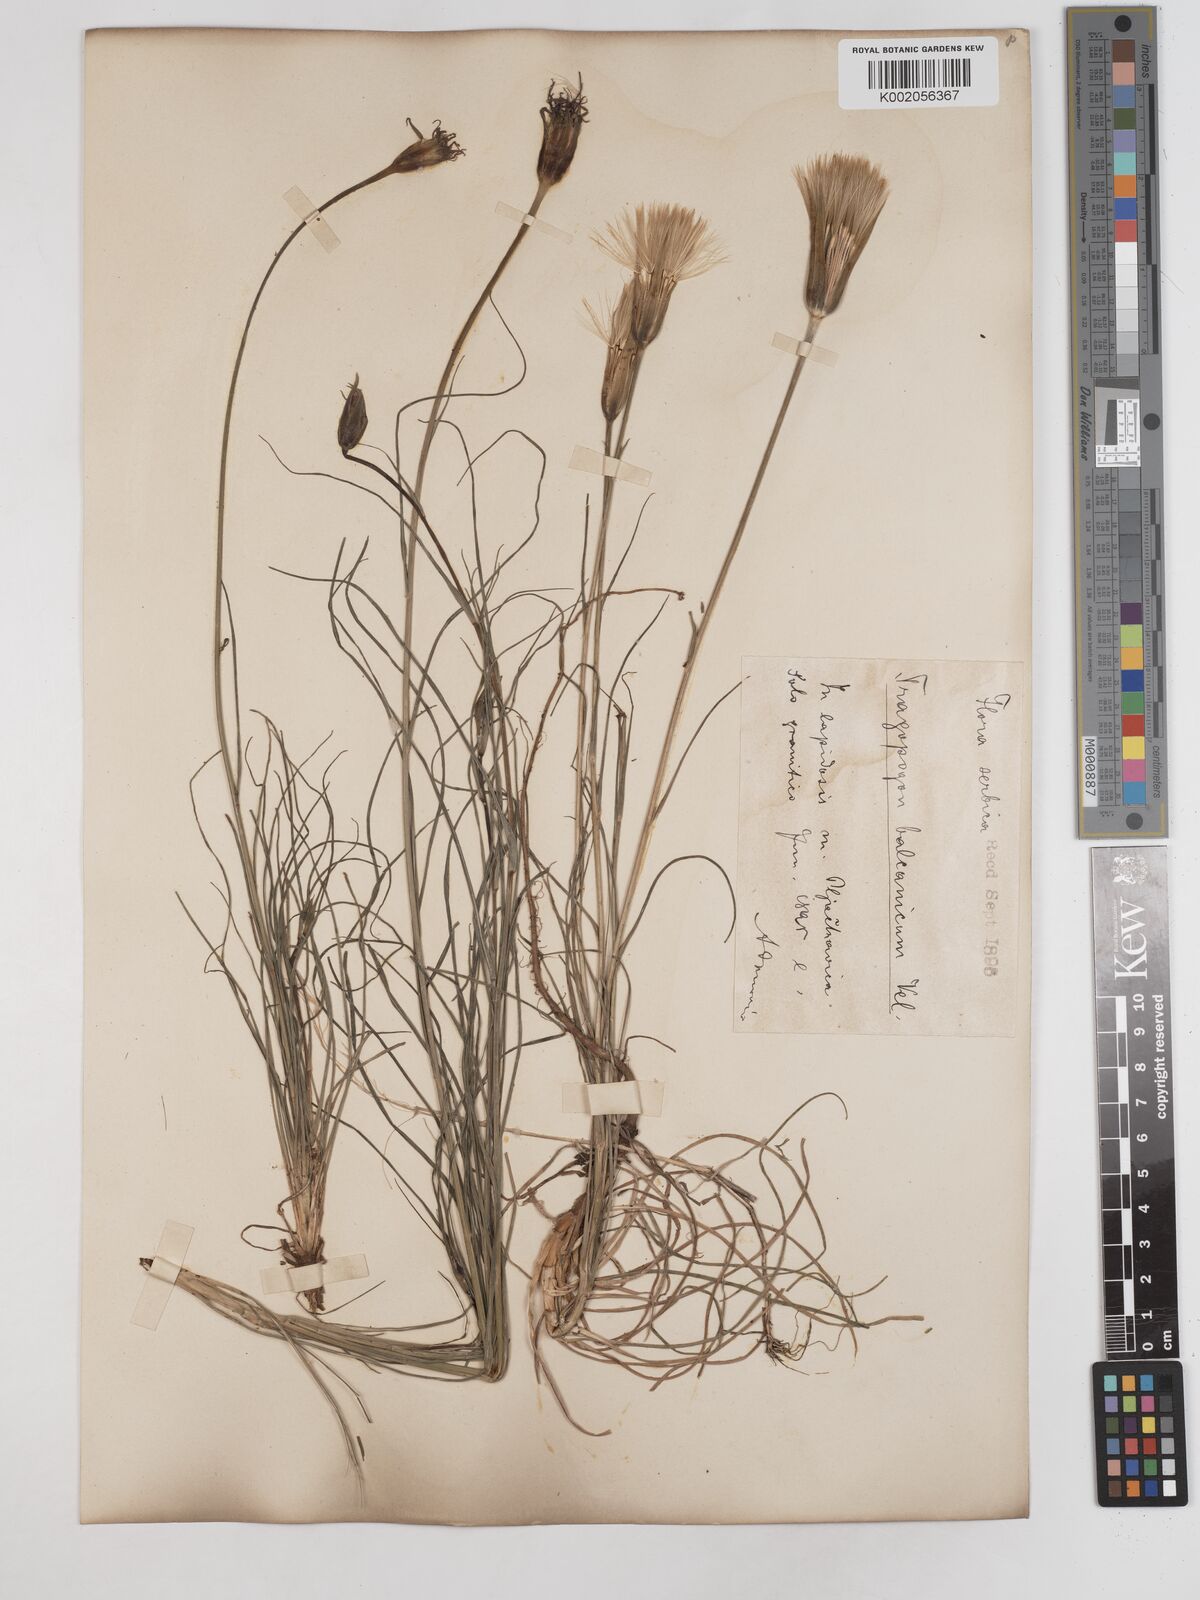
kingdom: Plantae
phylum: Tracheophyta
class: Magnoliopsida
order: Asterales
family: Asteraceae
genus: Tragopogon
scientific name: Tragopogon balcanicus
